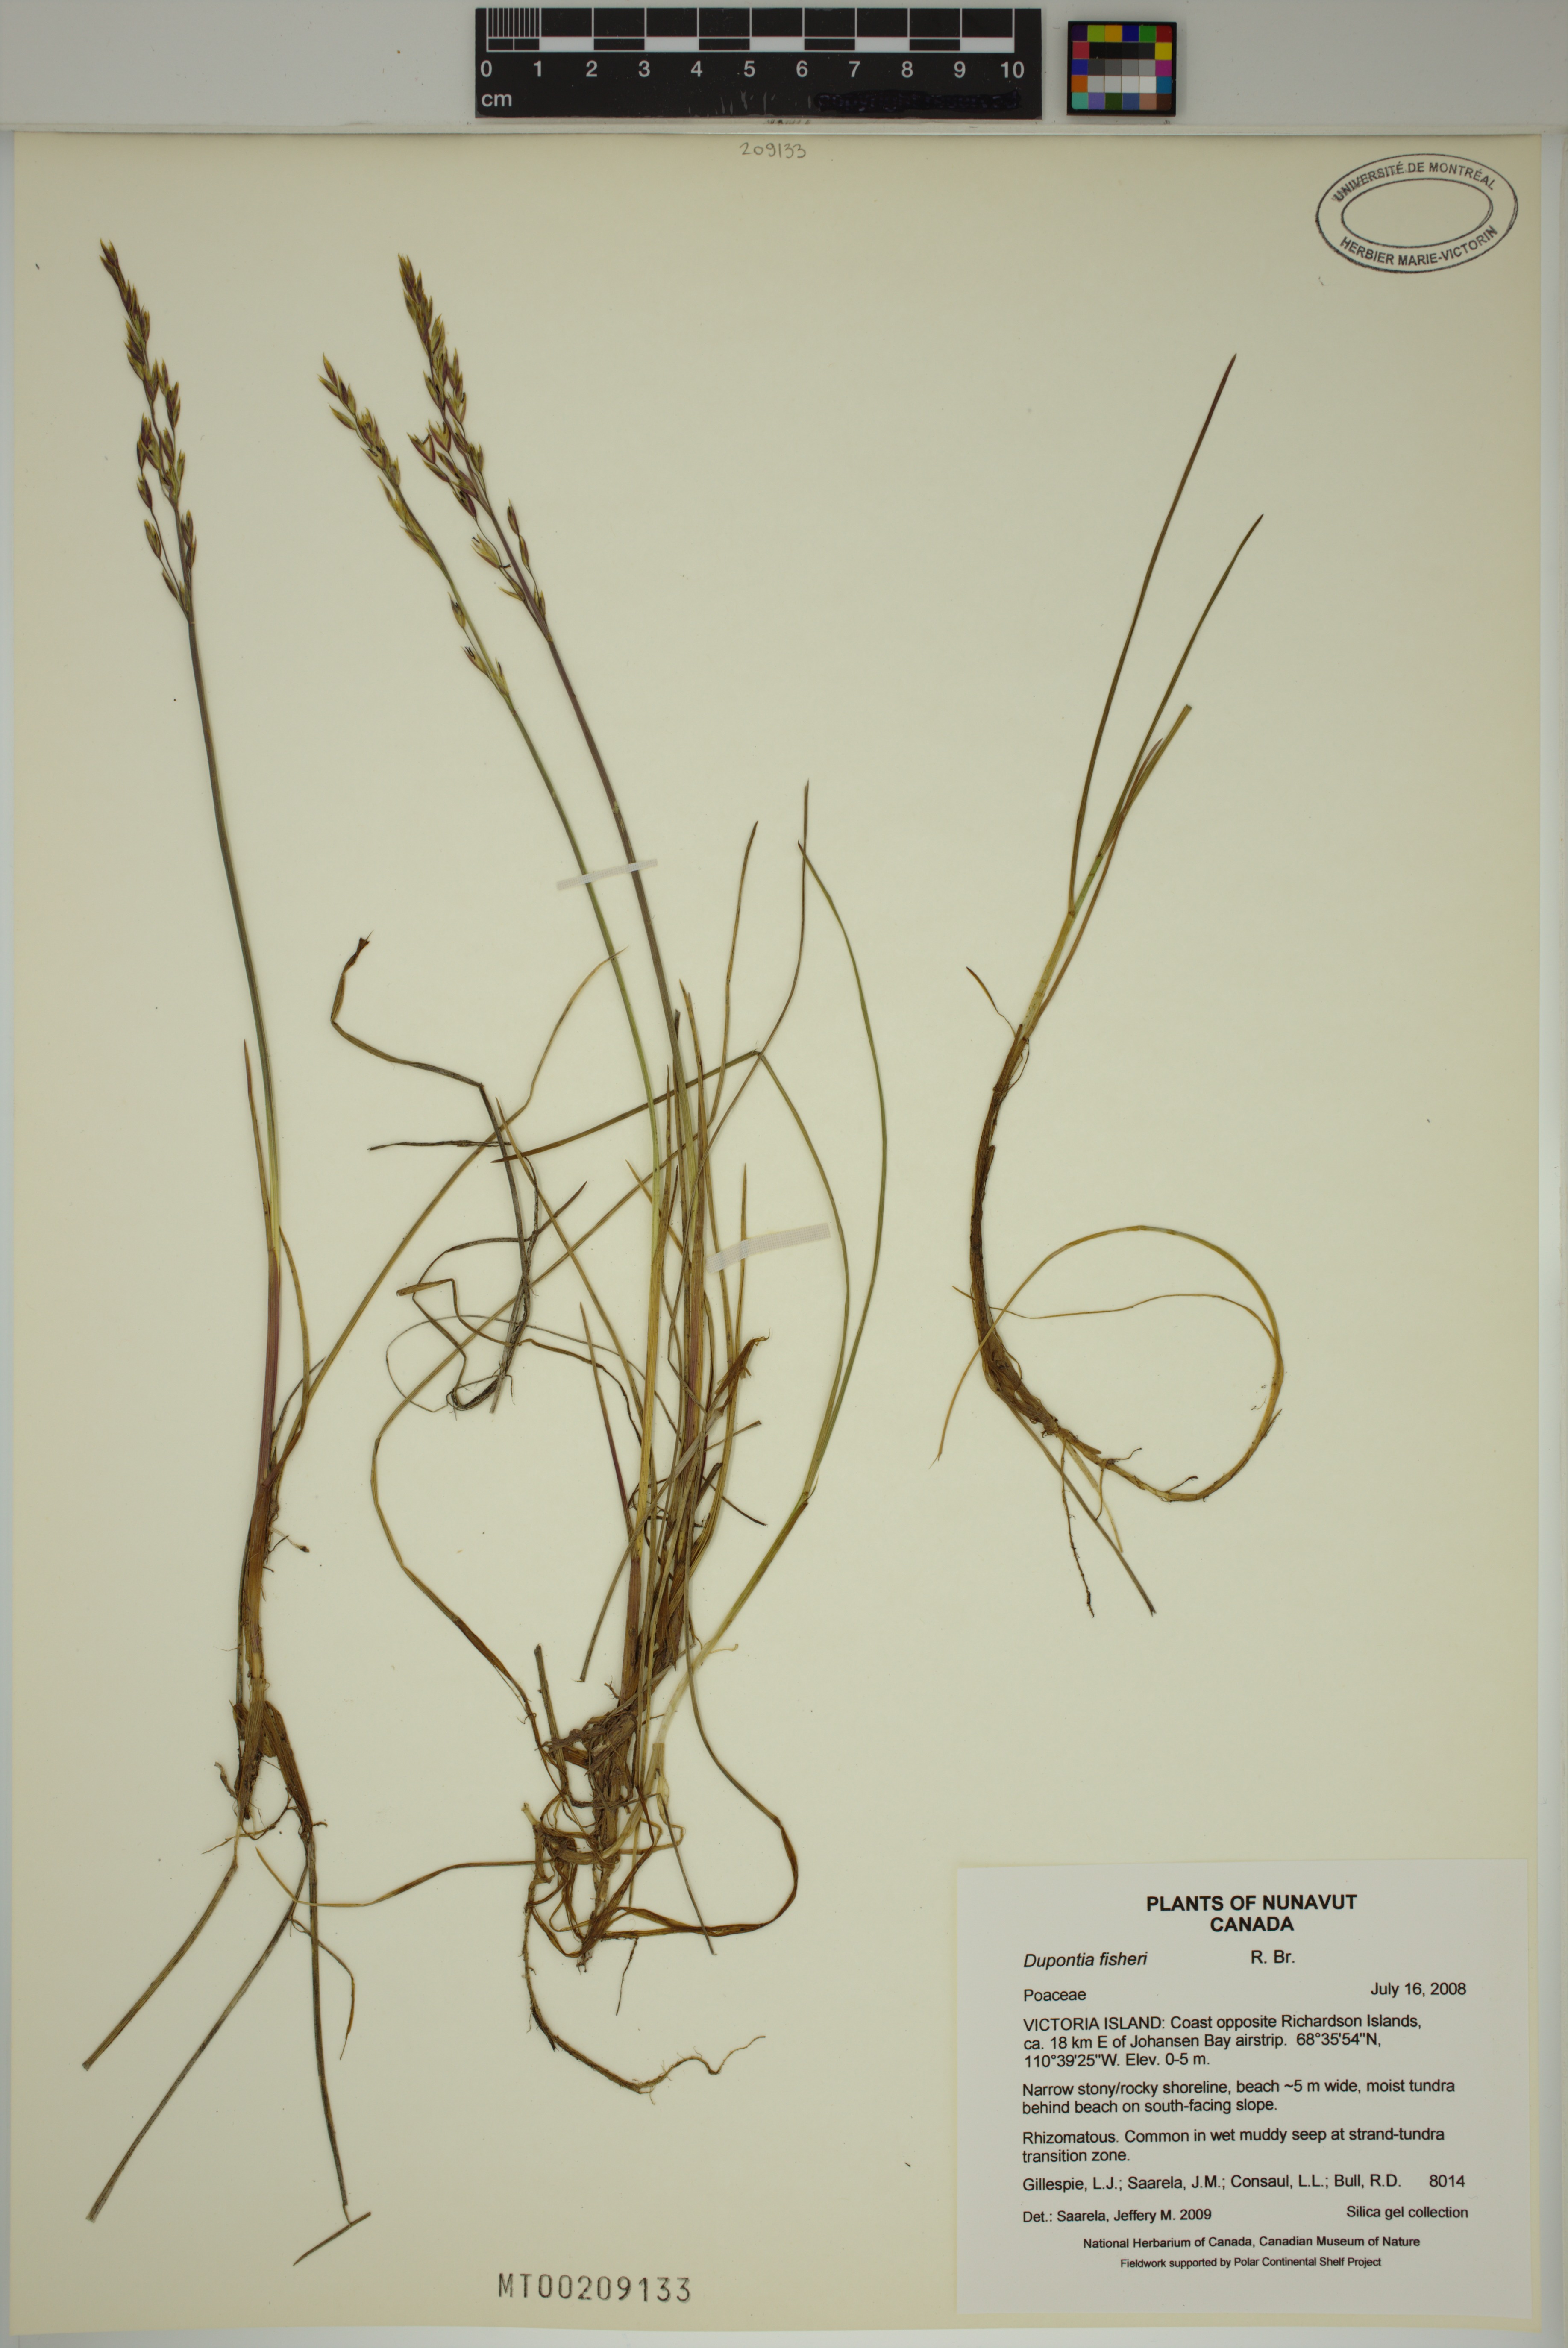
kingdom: Plantae
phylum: Tracheophyta
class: Liliopsida
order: Poales
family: Poaceae
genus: Dupontia
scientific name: Dupontia fisheri
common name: Tundra grass
